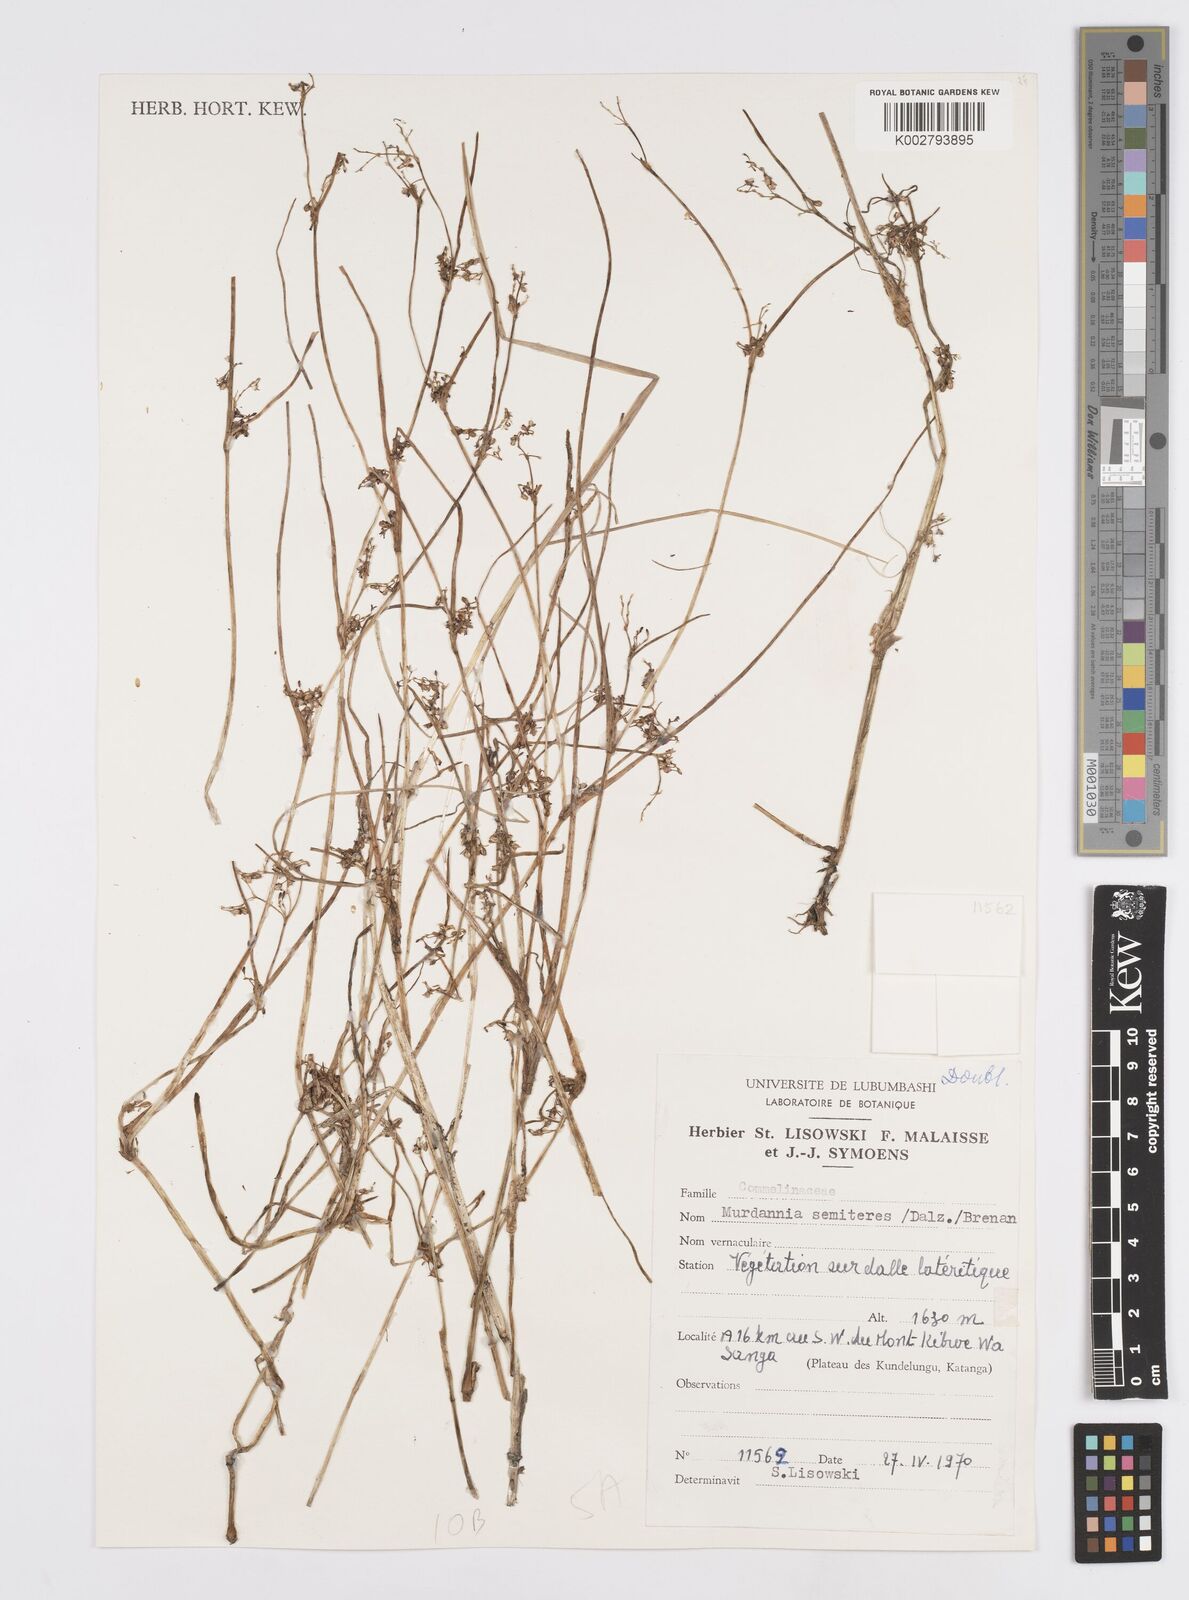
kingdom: Plantae
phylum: Tracheophyta
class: Liliopsida
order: Commelinales
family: Commelinaceae
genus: Murdannia
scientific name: Murdannia semiteres
